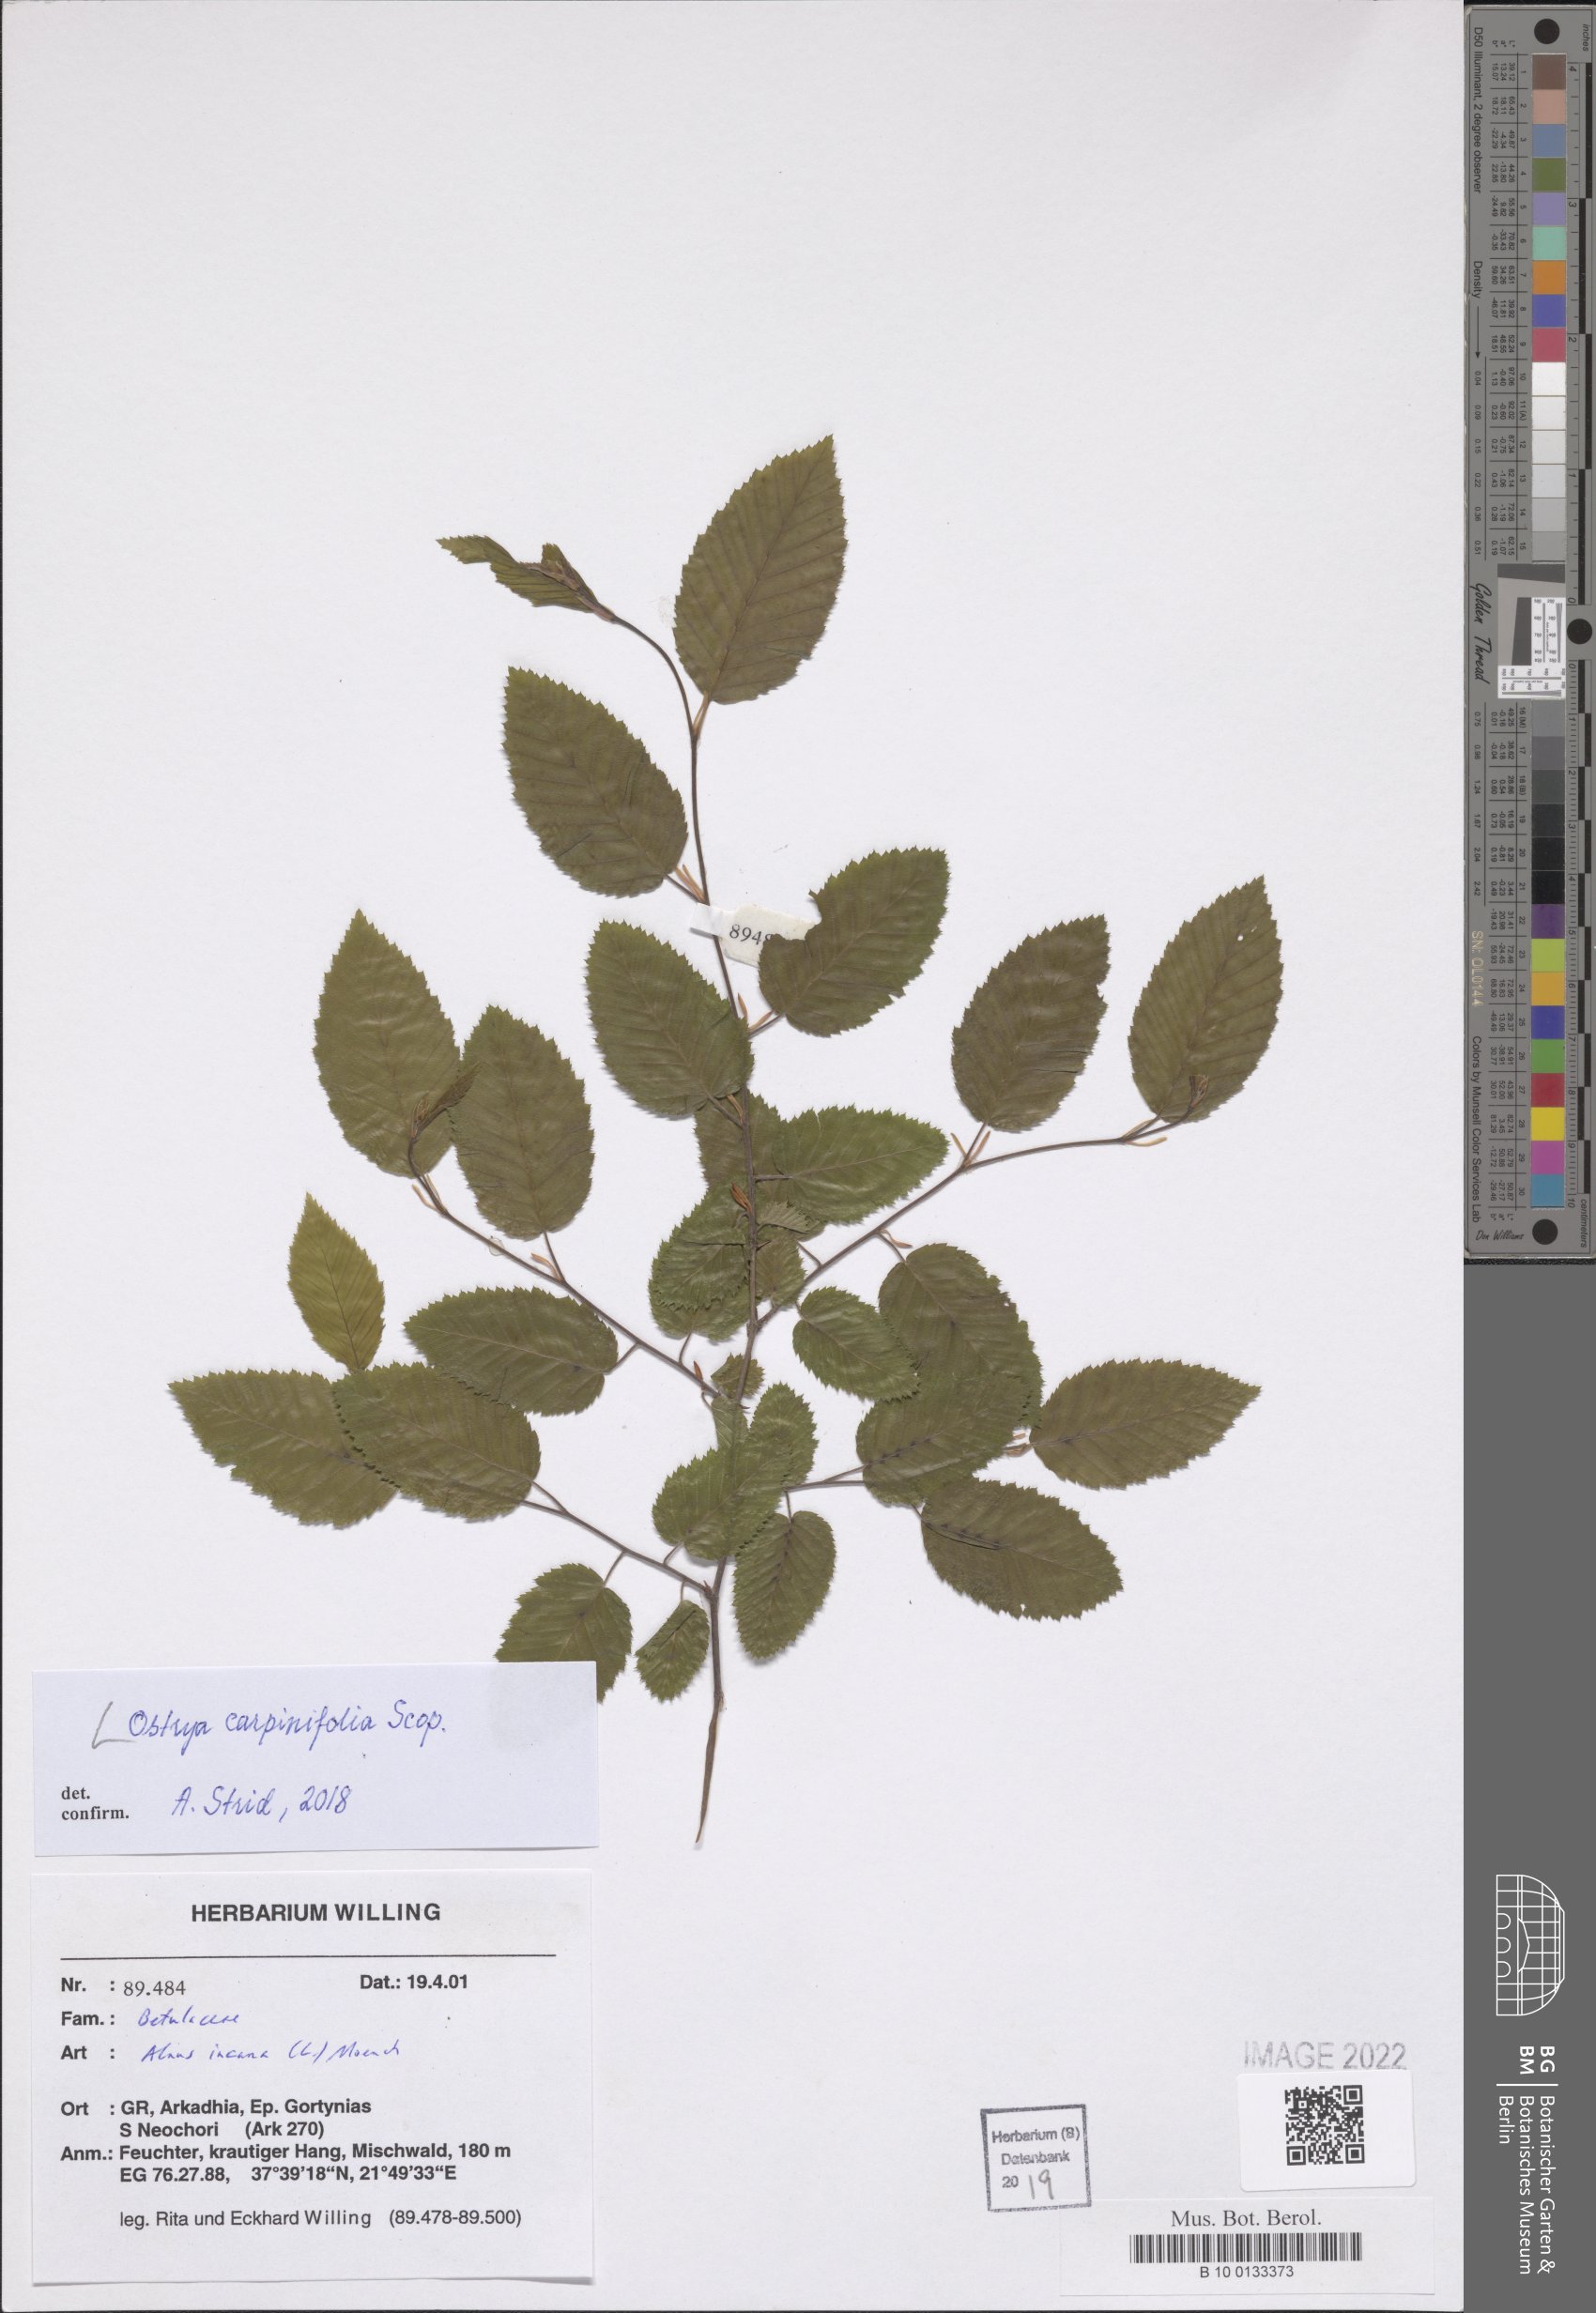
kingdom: Plantae
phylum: Tracheophyta
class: Magnoliopsida
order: Fagales
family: Betulaceae
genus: Ostrya
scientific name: Ostrya carpinifolia
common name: European hop-hornbeam
